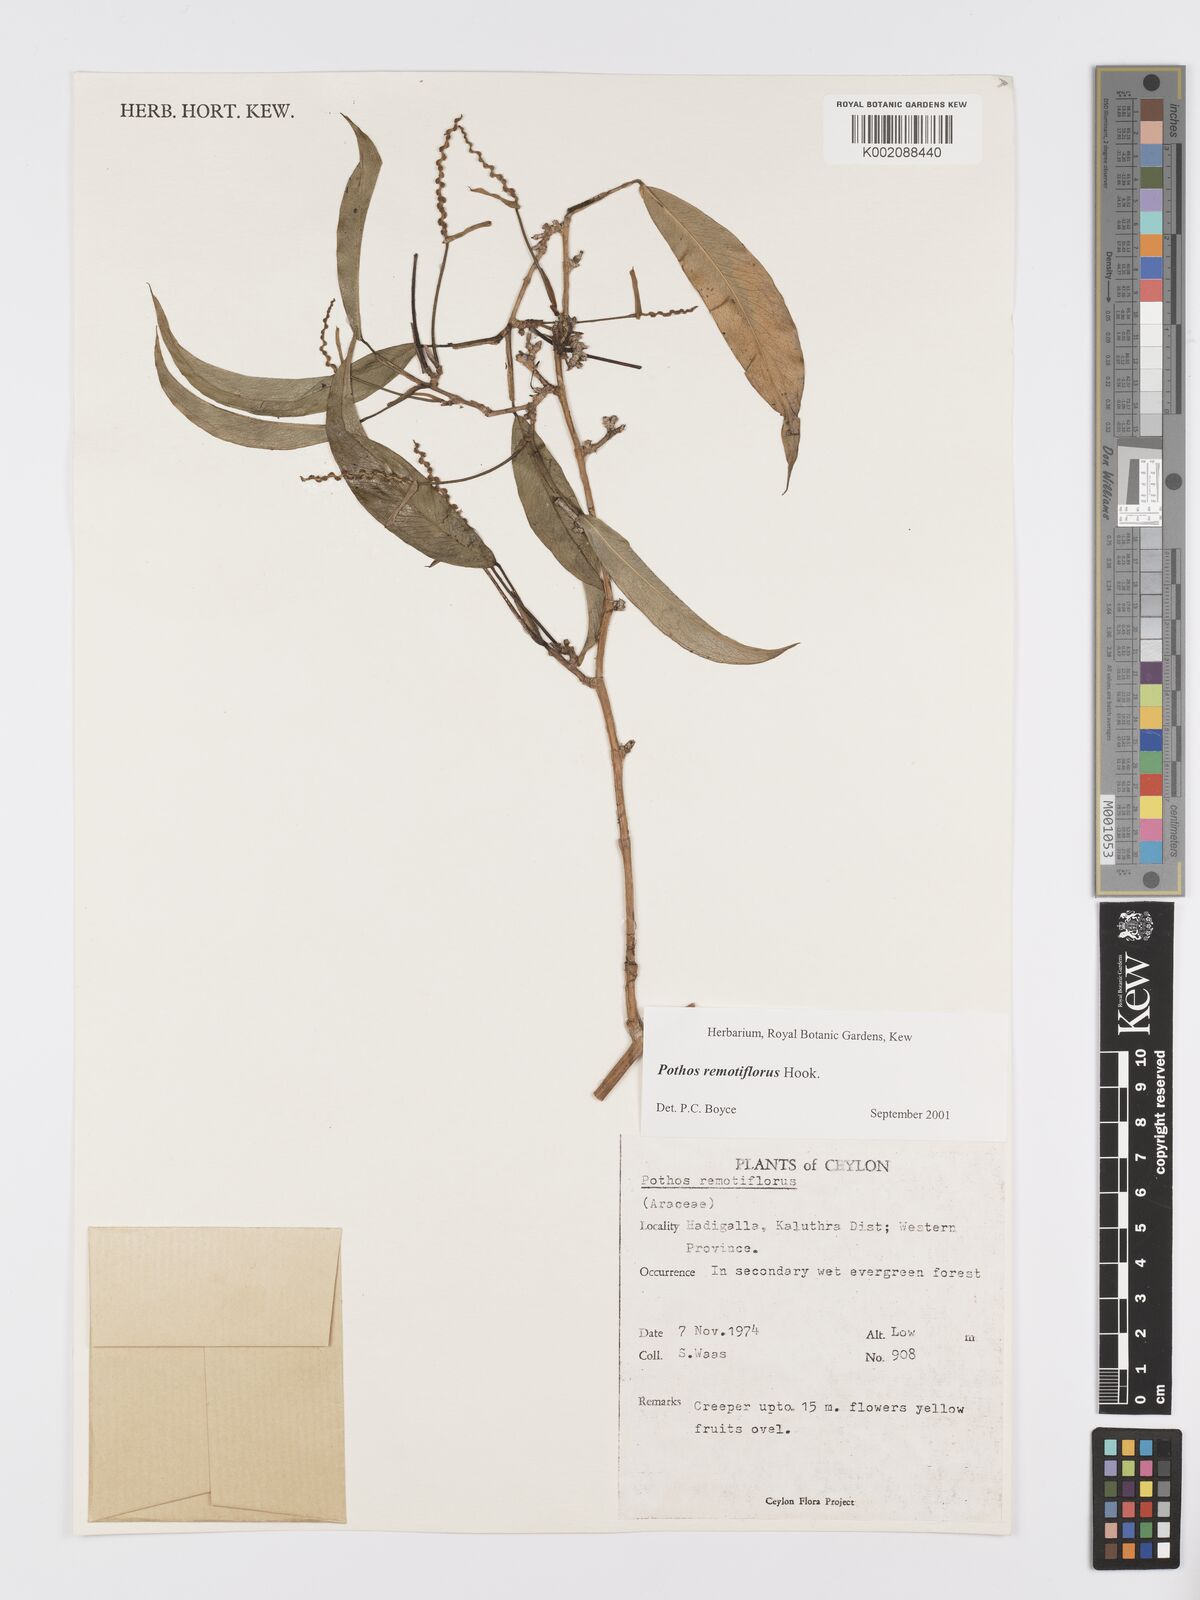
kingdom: Plantae
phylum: Tracheophyta
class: Liliopsida
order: Alismatales
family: Araceae
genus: Pothos
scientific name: Pothos remotiflorus
